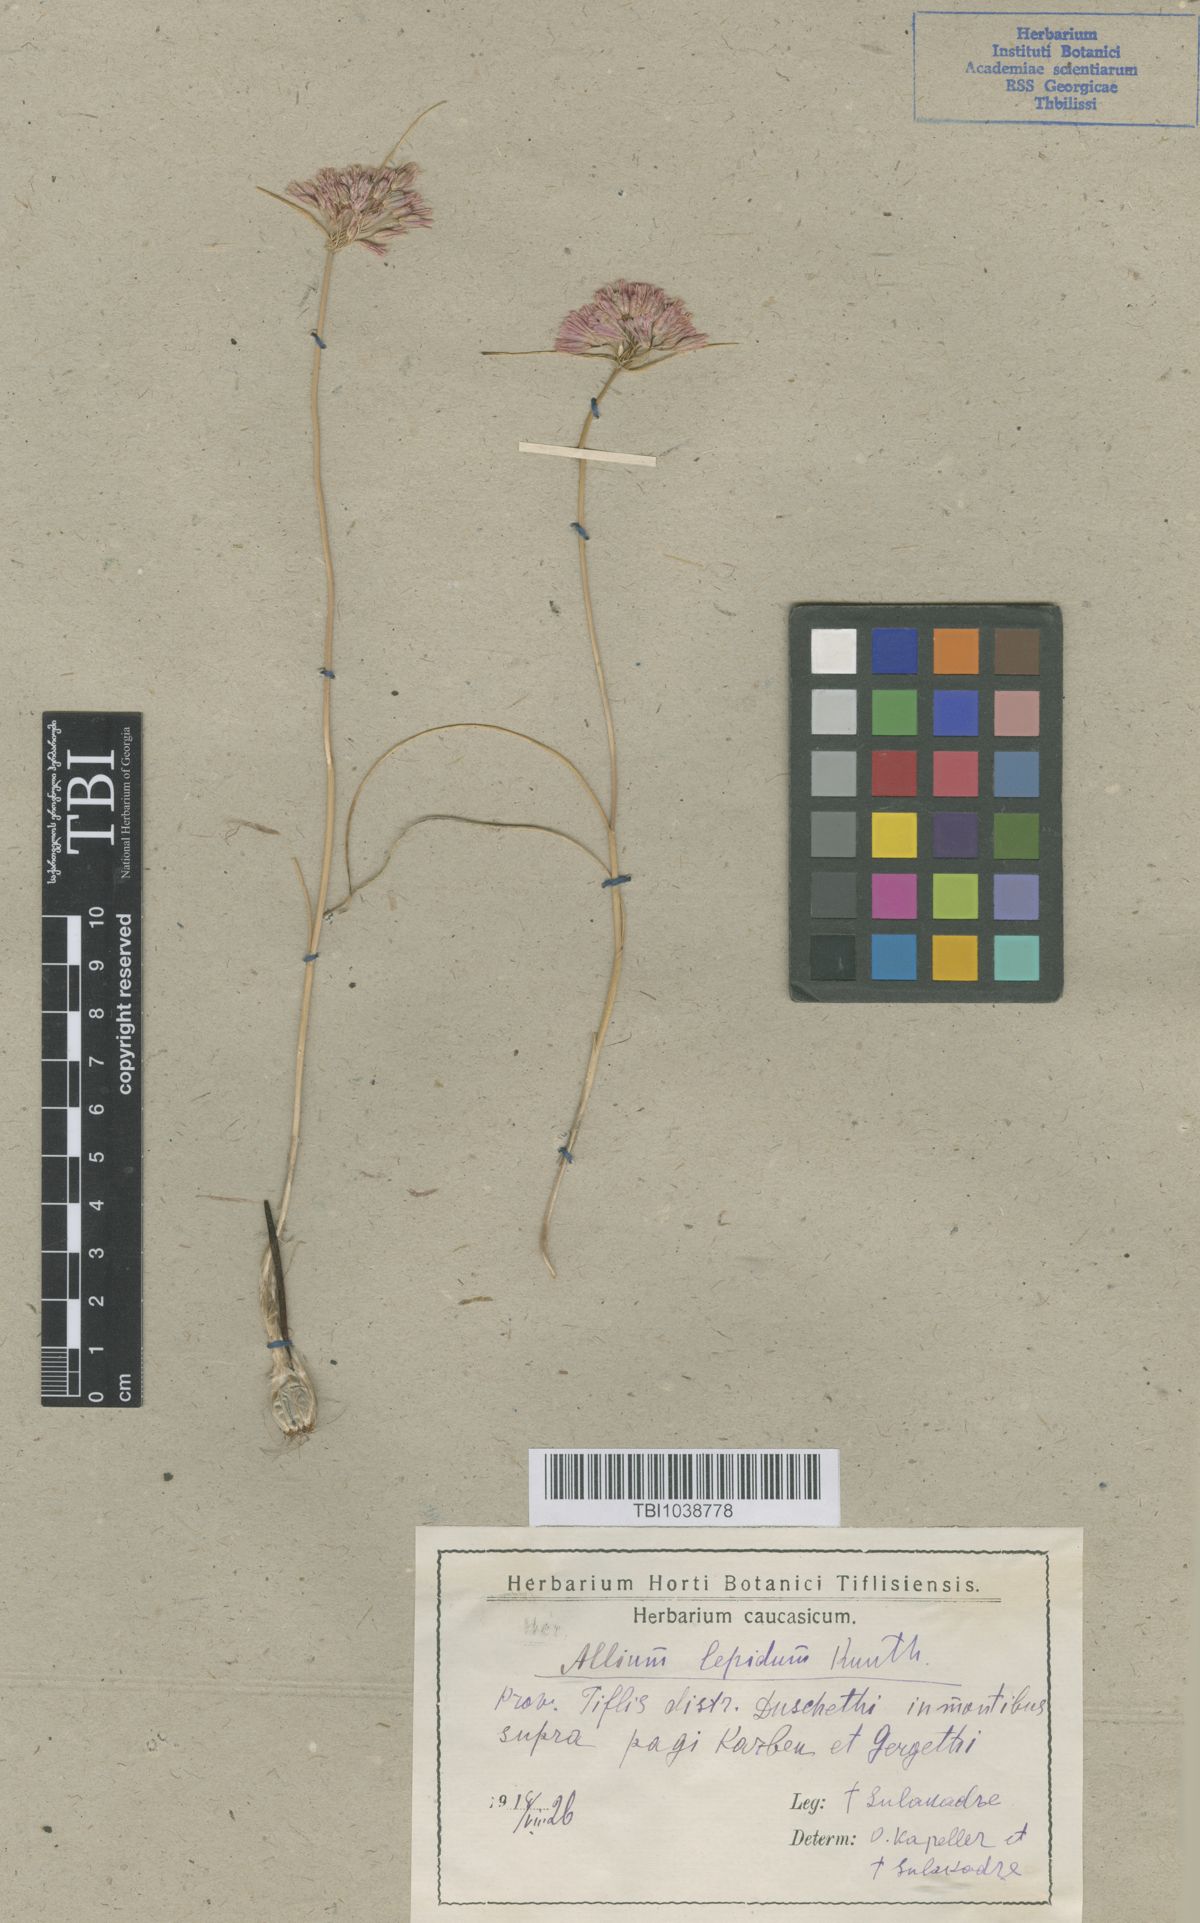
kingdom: Plantae
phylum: Tracheophyta
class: Liliopsida
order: Asparagales
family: Amaryllidaceae
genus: Allium
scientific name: Allium kunthianum
